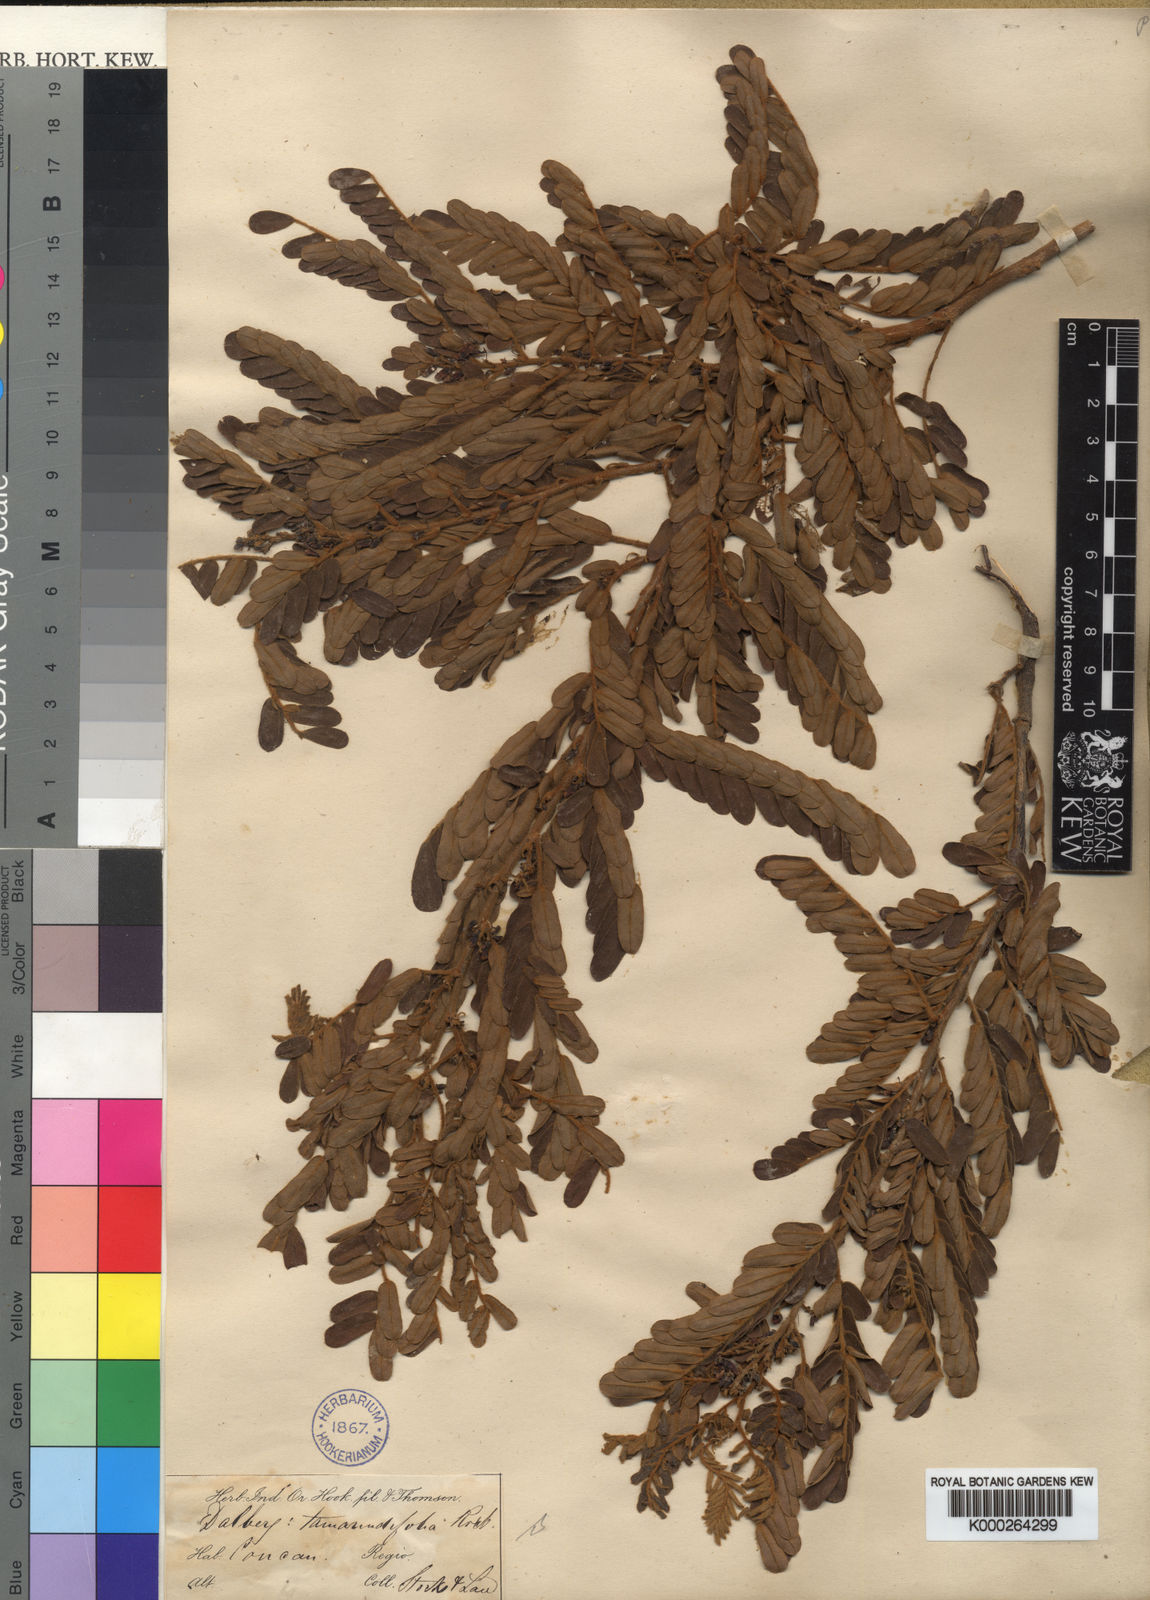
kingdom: Plantae
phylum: Tracheophyta
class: Magnoliopsida
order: Fabales
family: Fabaceae
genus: Dalbergia
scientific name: Dalbergia velutina
